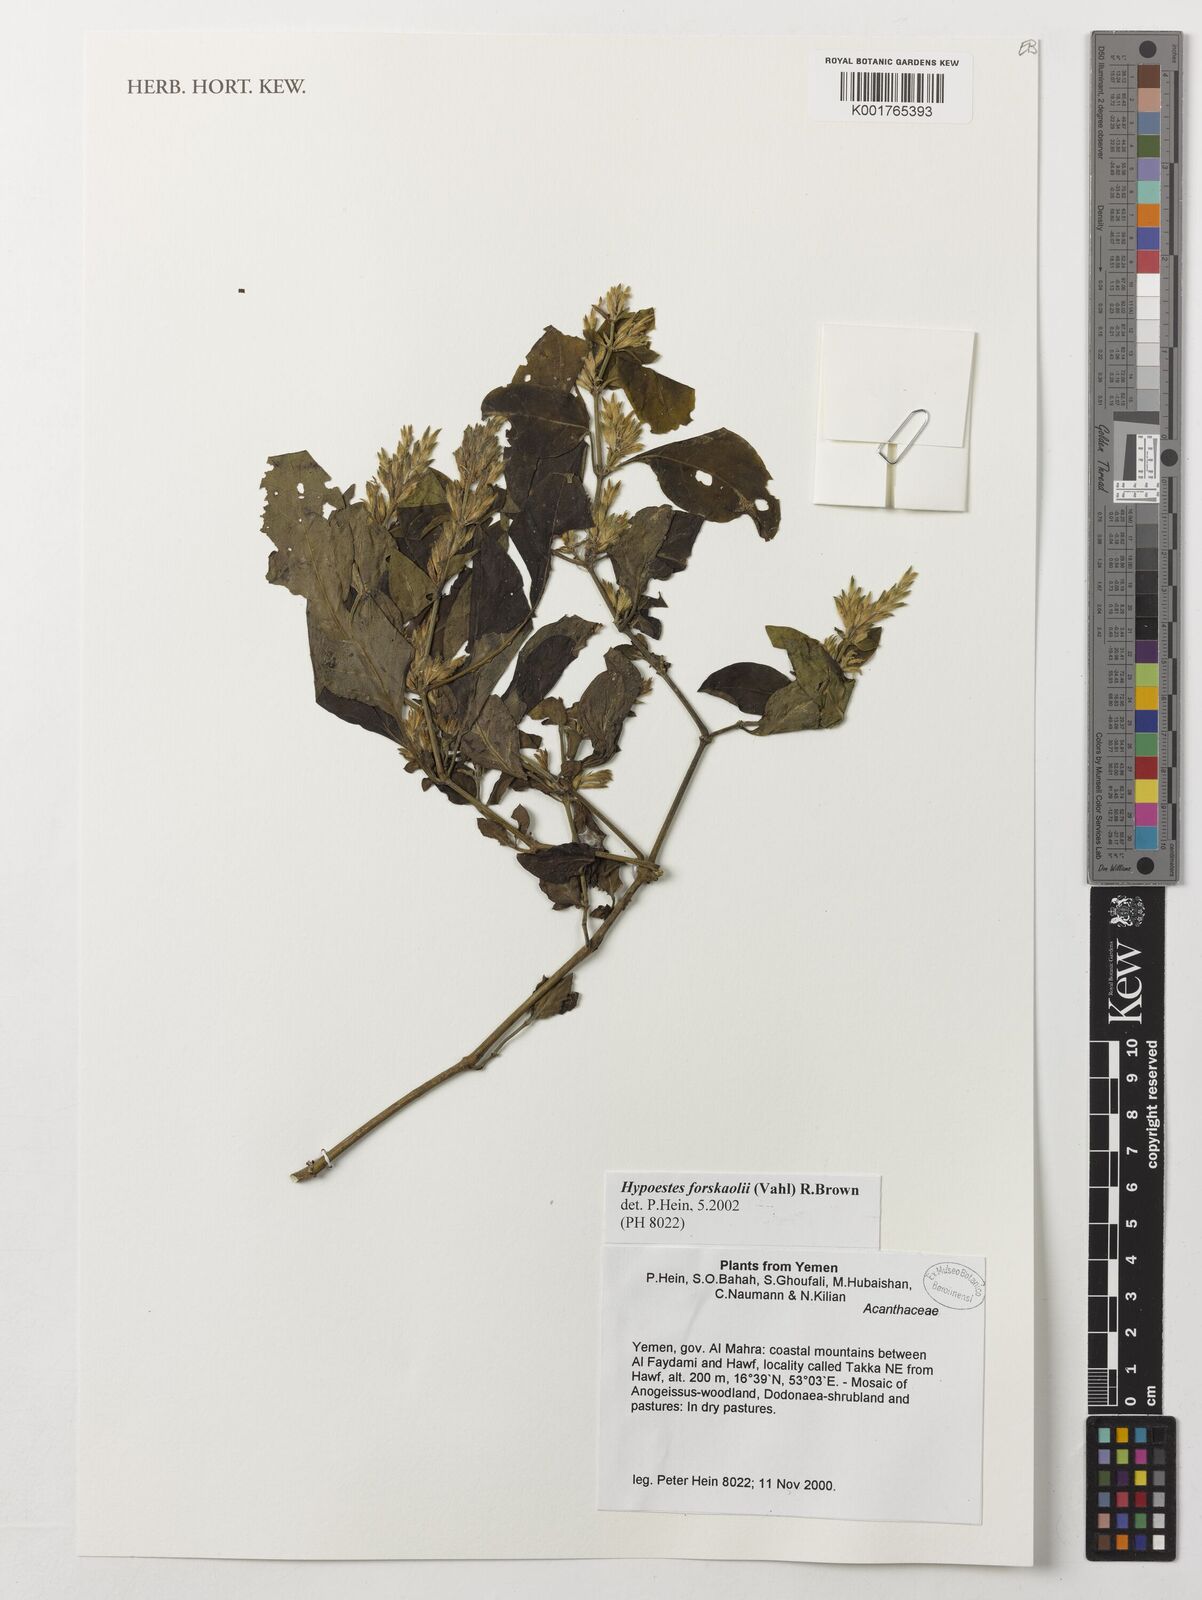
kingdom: Plantae
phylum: Tracheophyta
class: Magnoliopsida
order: Lamiales
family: Acanthaceae
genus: Hypoestes
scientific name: Hypoestes forskaolii
